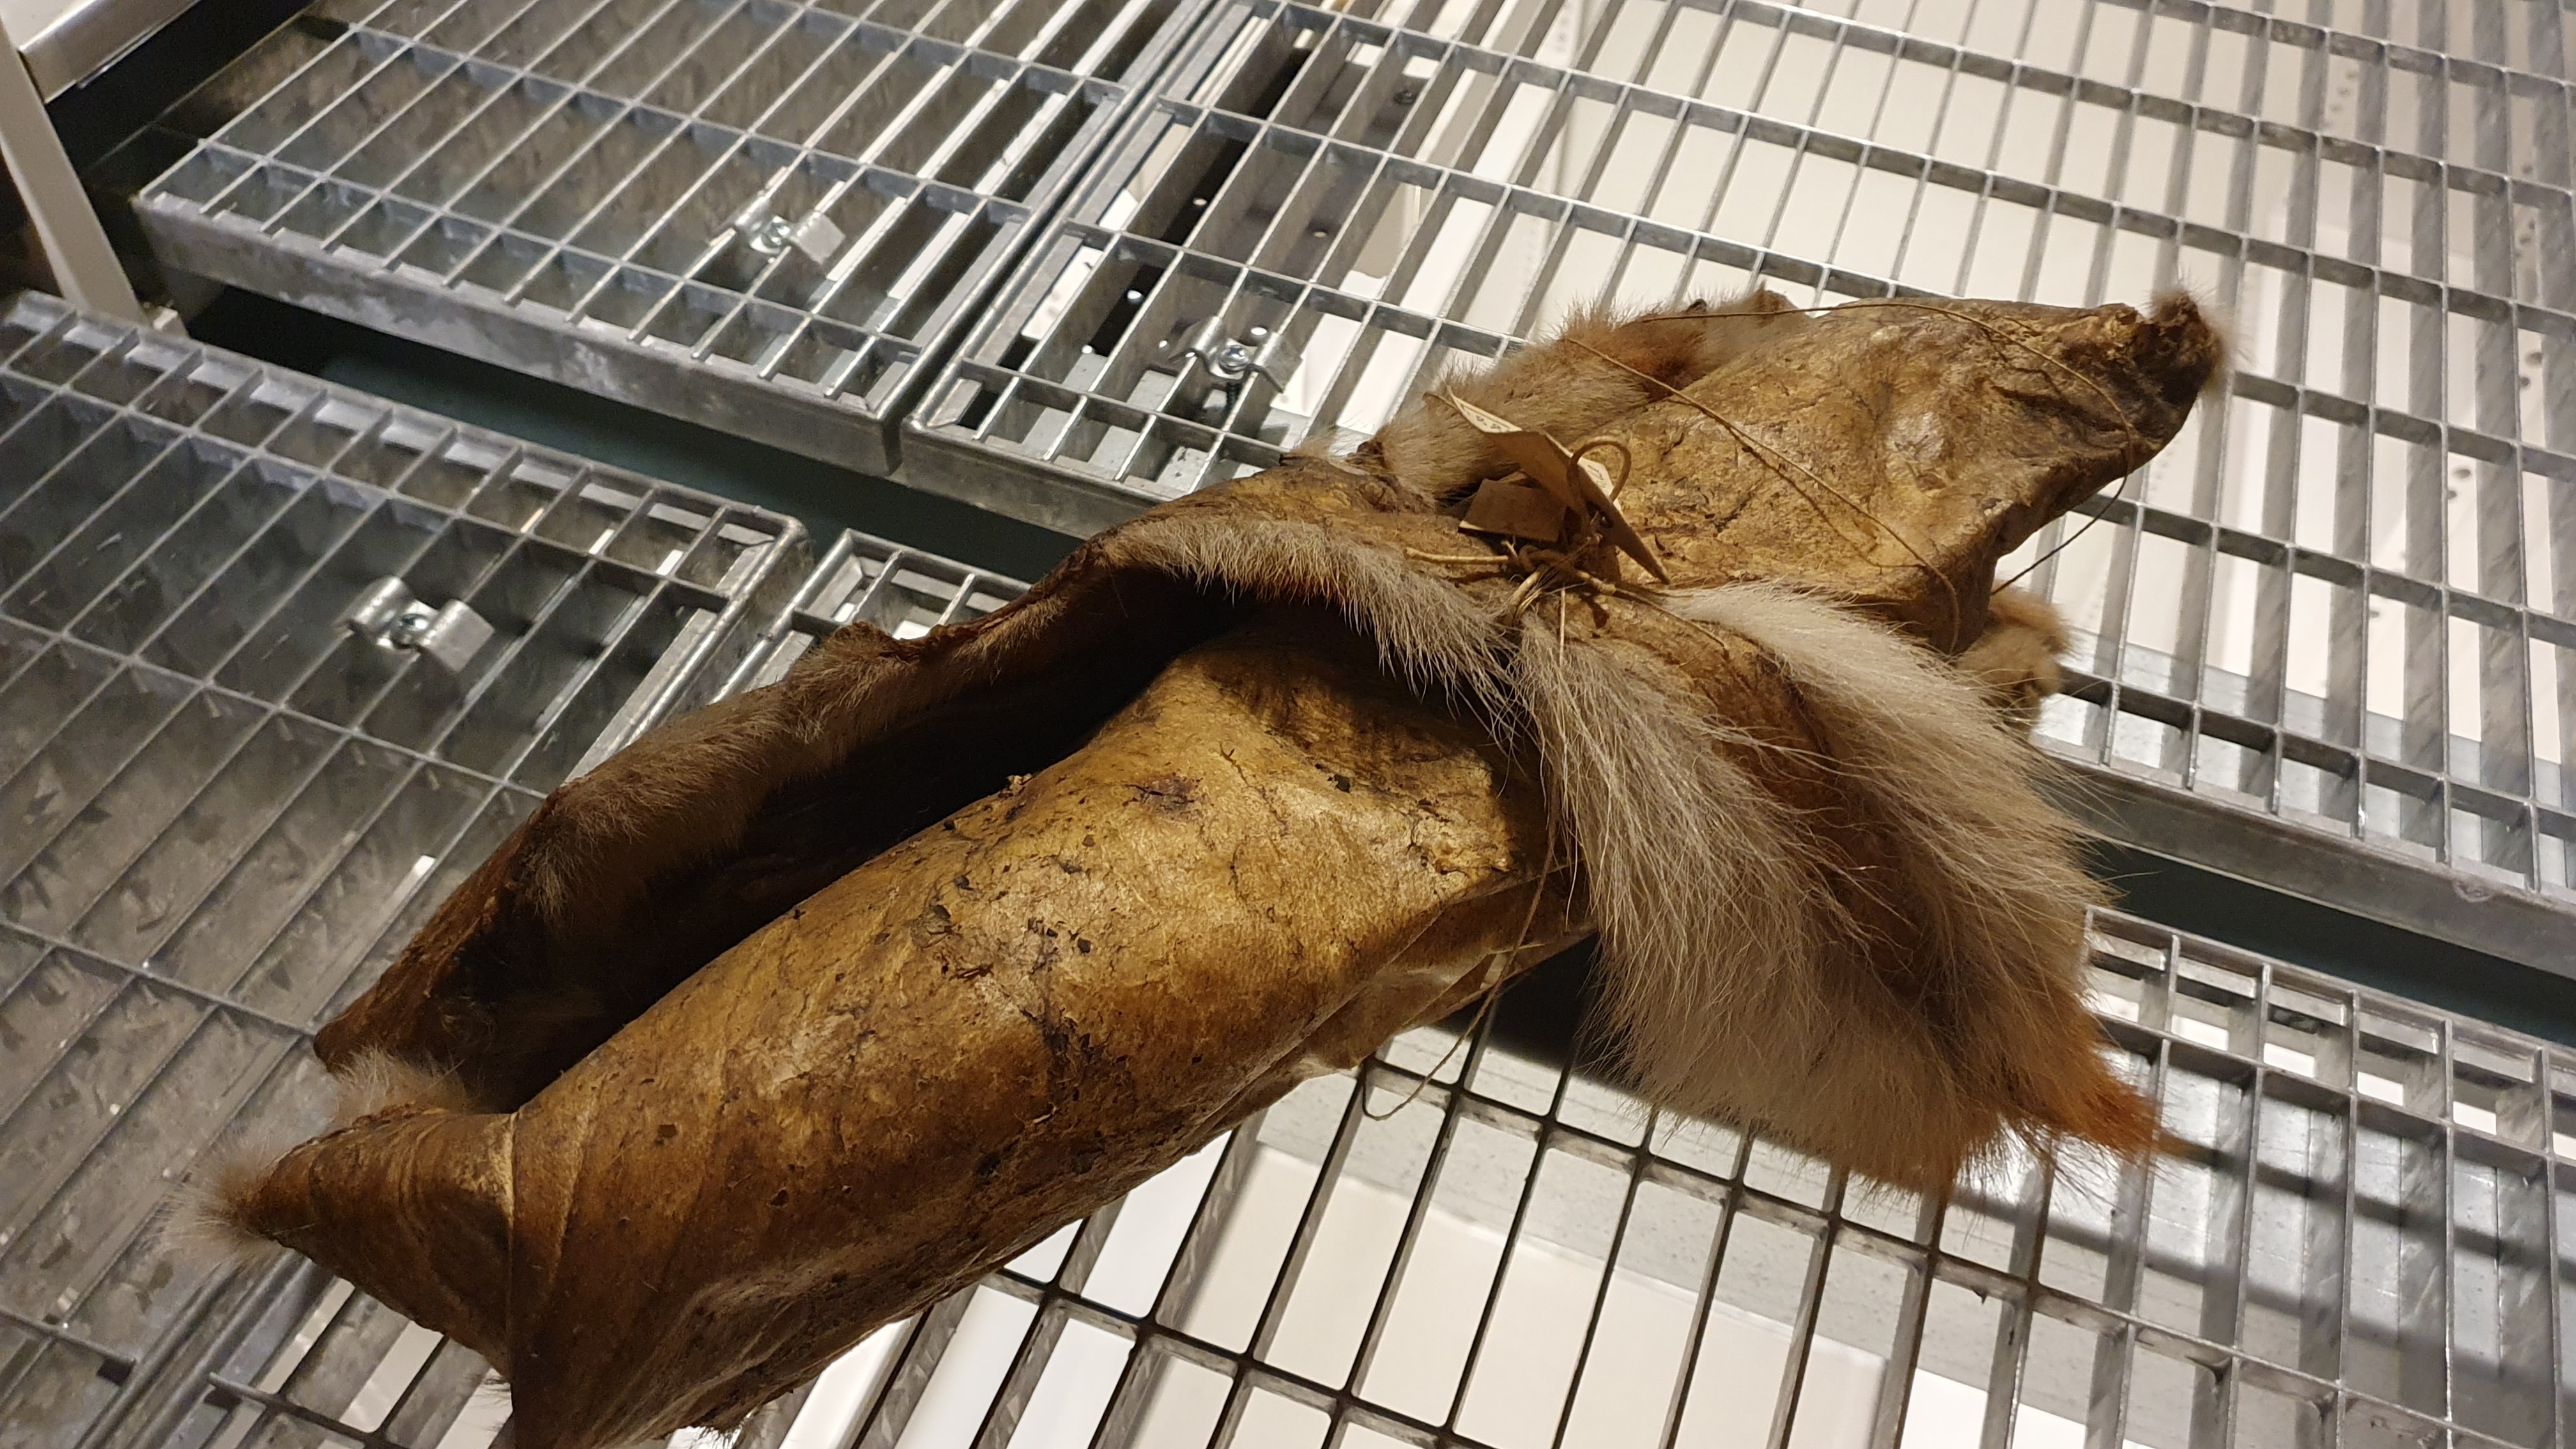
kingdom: Animalia
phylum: Chordata
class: Mammalia
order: Carnivora
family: Canidae
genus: Canis
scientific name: Canis lupus
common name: Gray wolf
